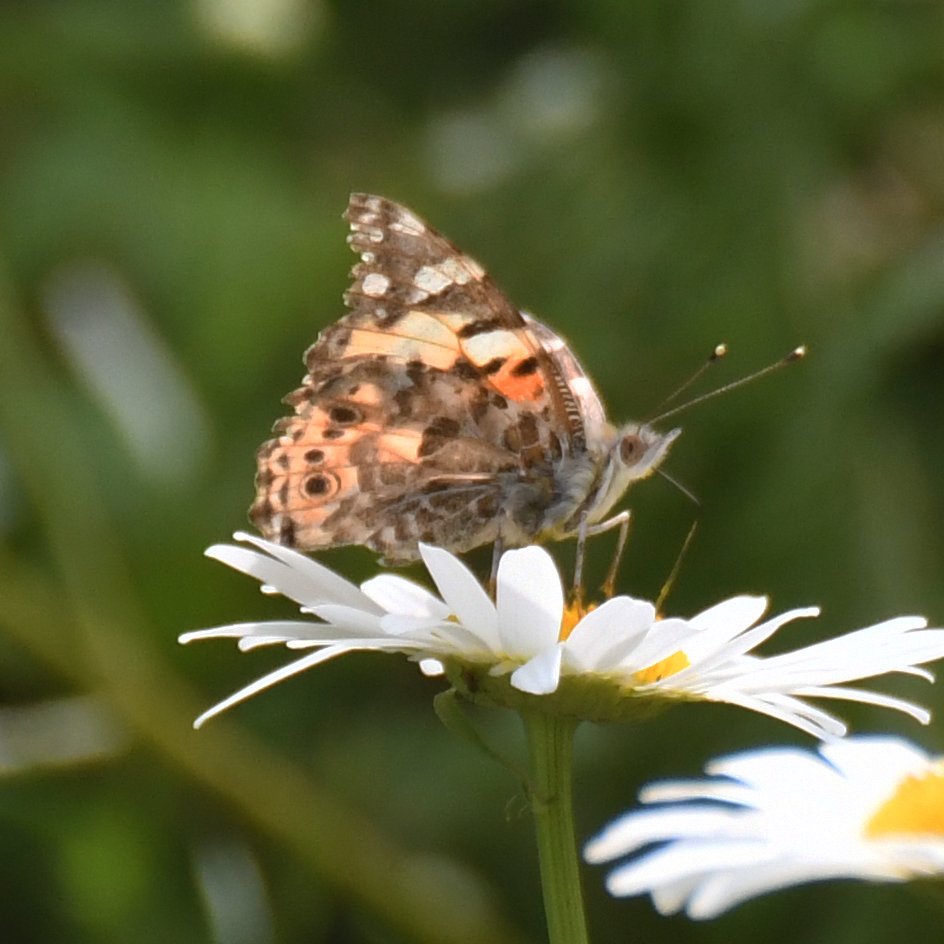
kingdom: Animalia
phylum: Arthropoda
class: Insecta
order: Lepidoptera
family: Nymphalidae
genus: Vanessa
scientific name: Vanessa cardui
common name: Painted Lady
